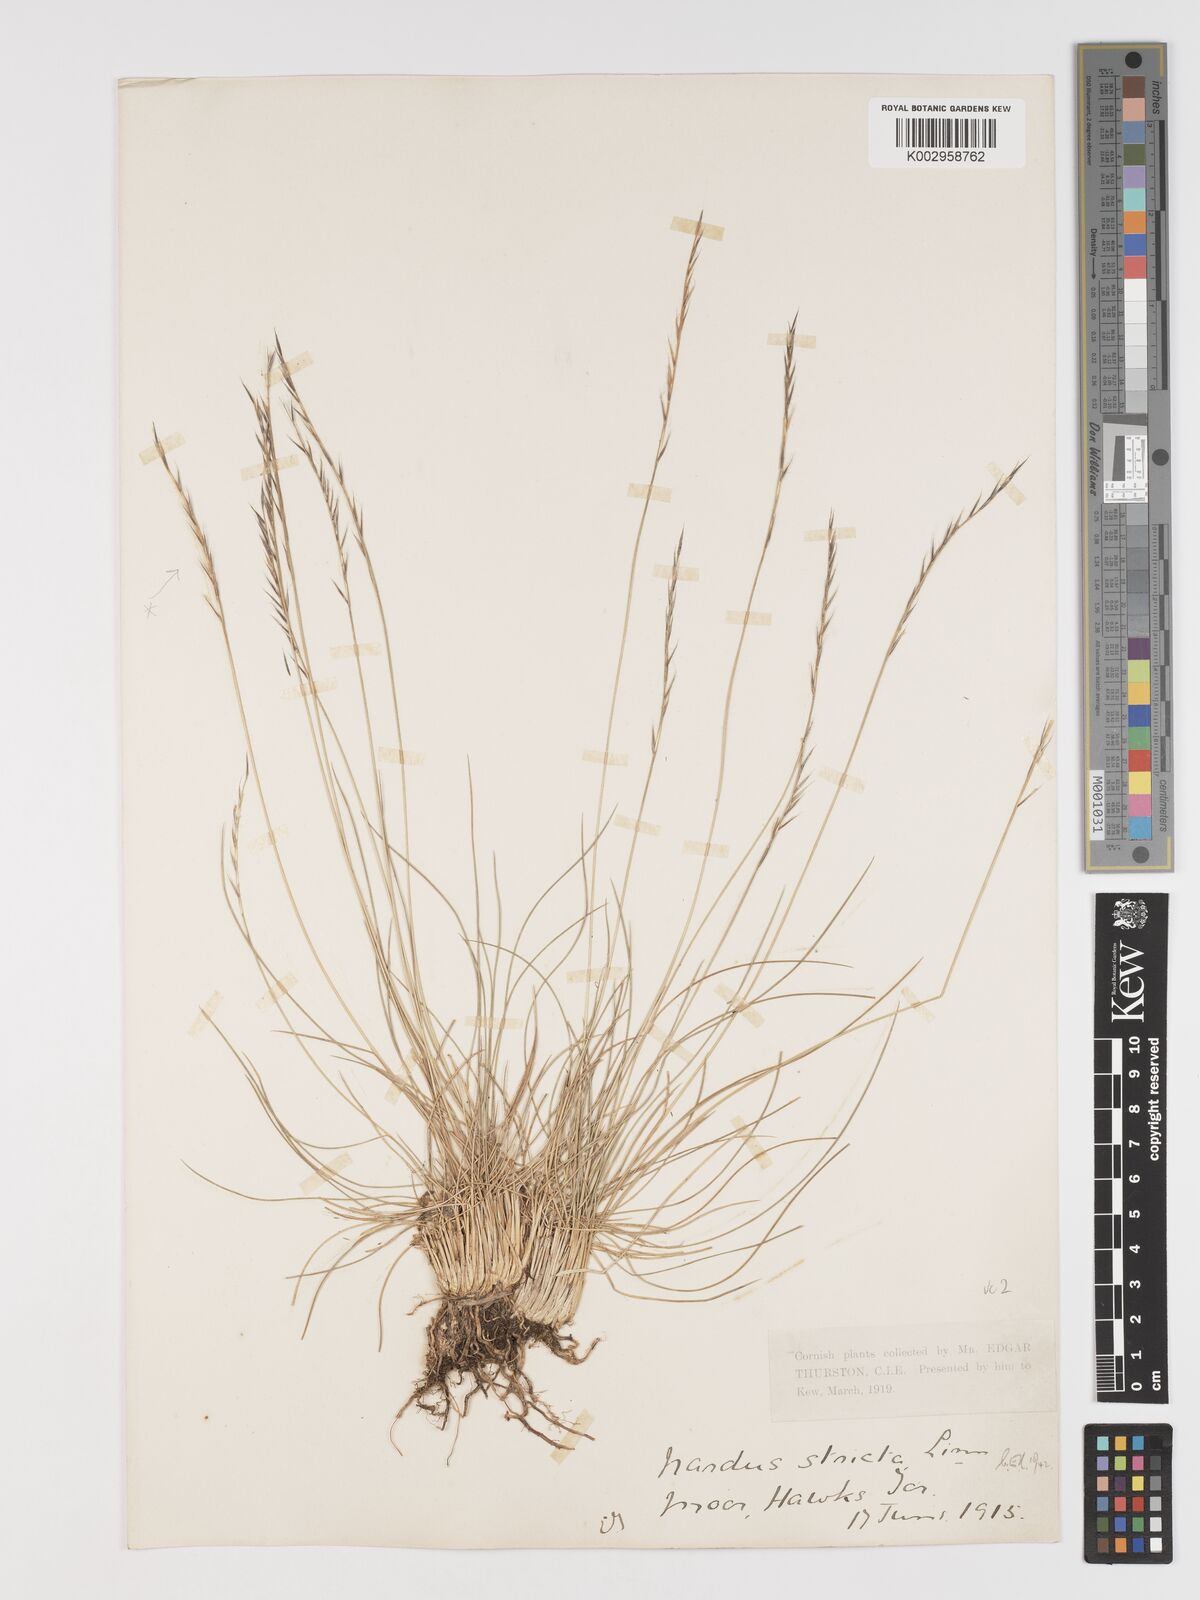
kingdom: Plantae
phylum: Tracheophyta
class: Liliopsida
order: Poales
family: Poaceae
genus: Nardus
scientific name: Nardus stricta
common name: Mat-grass
